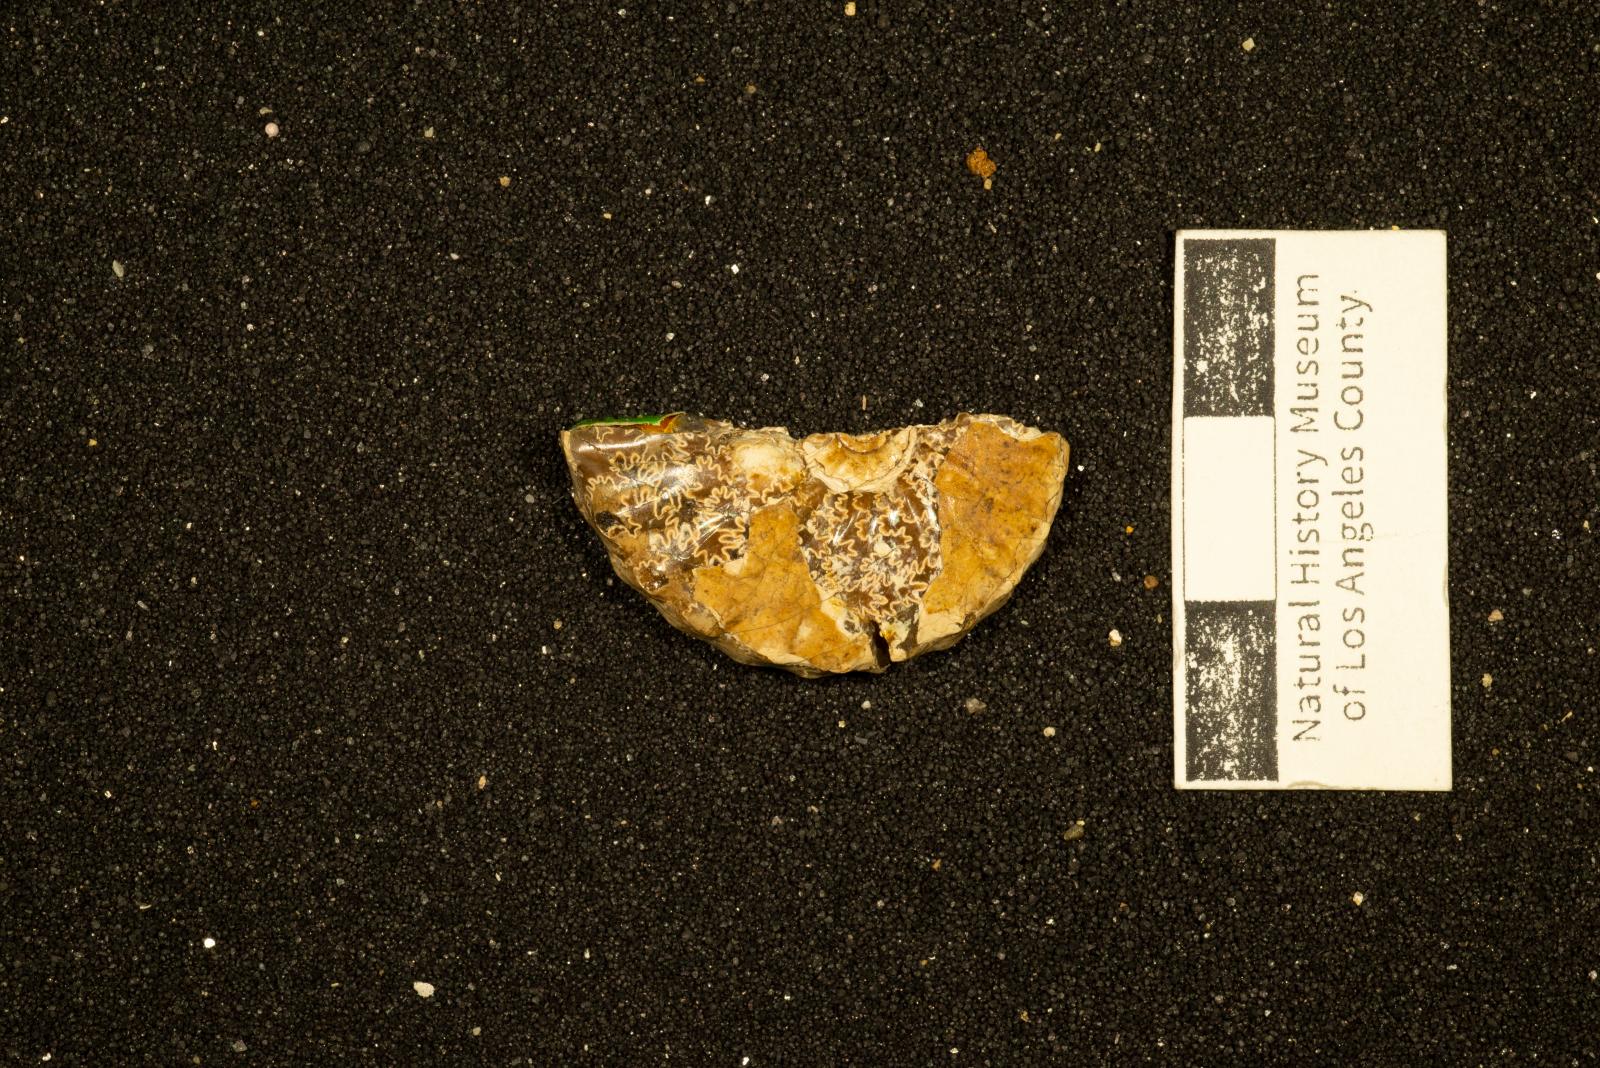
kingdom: Animalia
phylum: Mollusca
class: Cephalopoda
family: Collignoniceratidae
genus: Subprionocyclus
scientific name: Subprionocyclus
